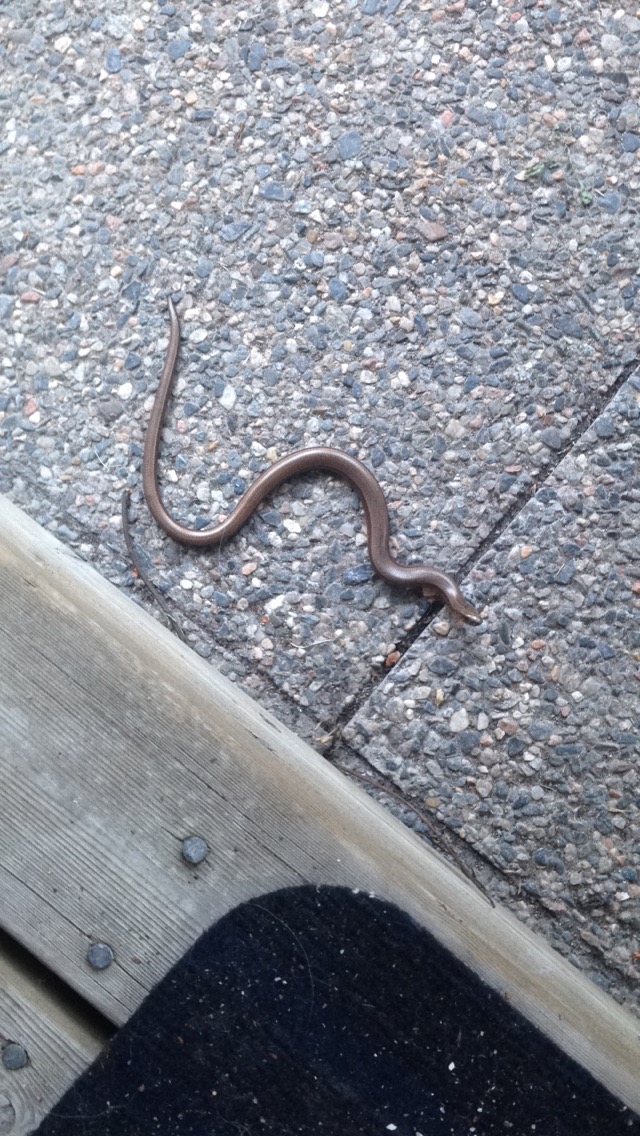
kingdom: Animalia
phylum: Chordata
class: Squamata
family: Anguidae
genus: Anguis
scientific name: Anguis colchica
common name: Slow worm
